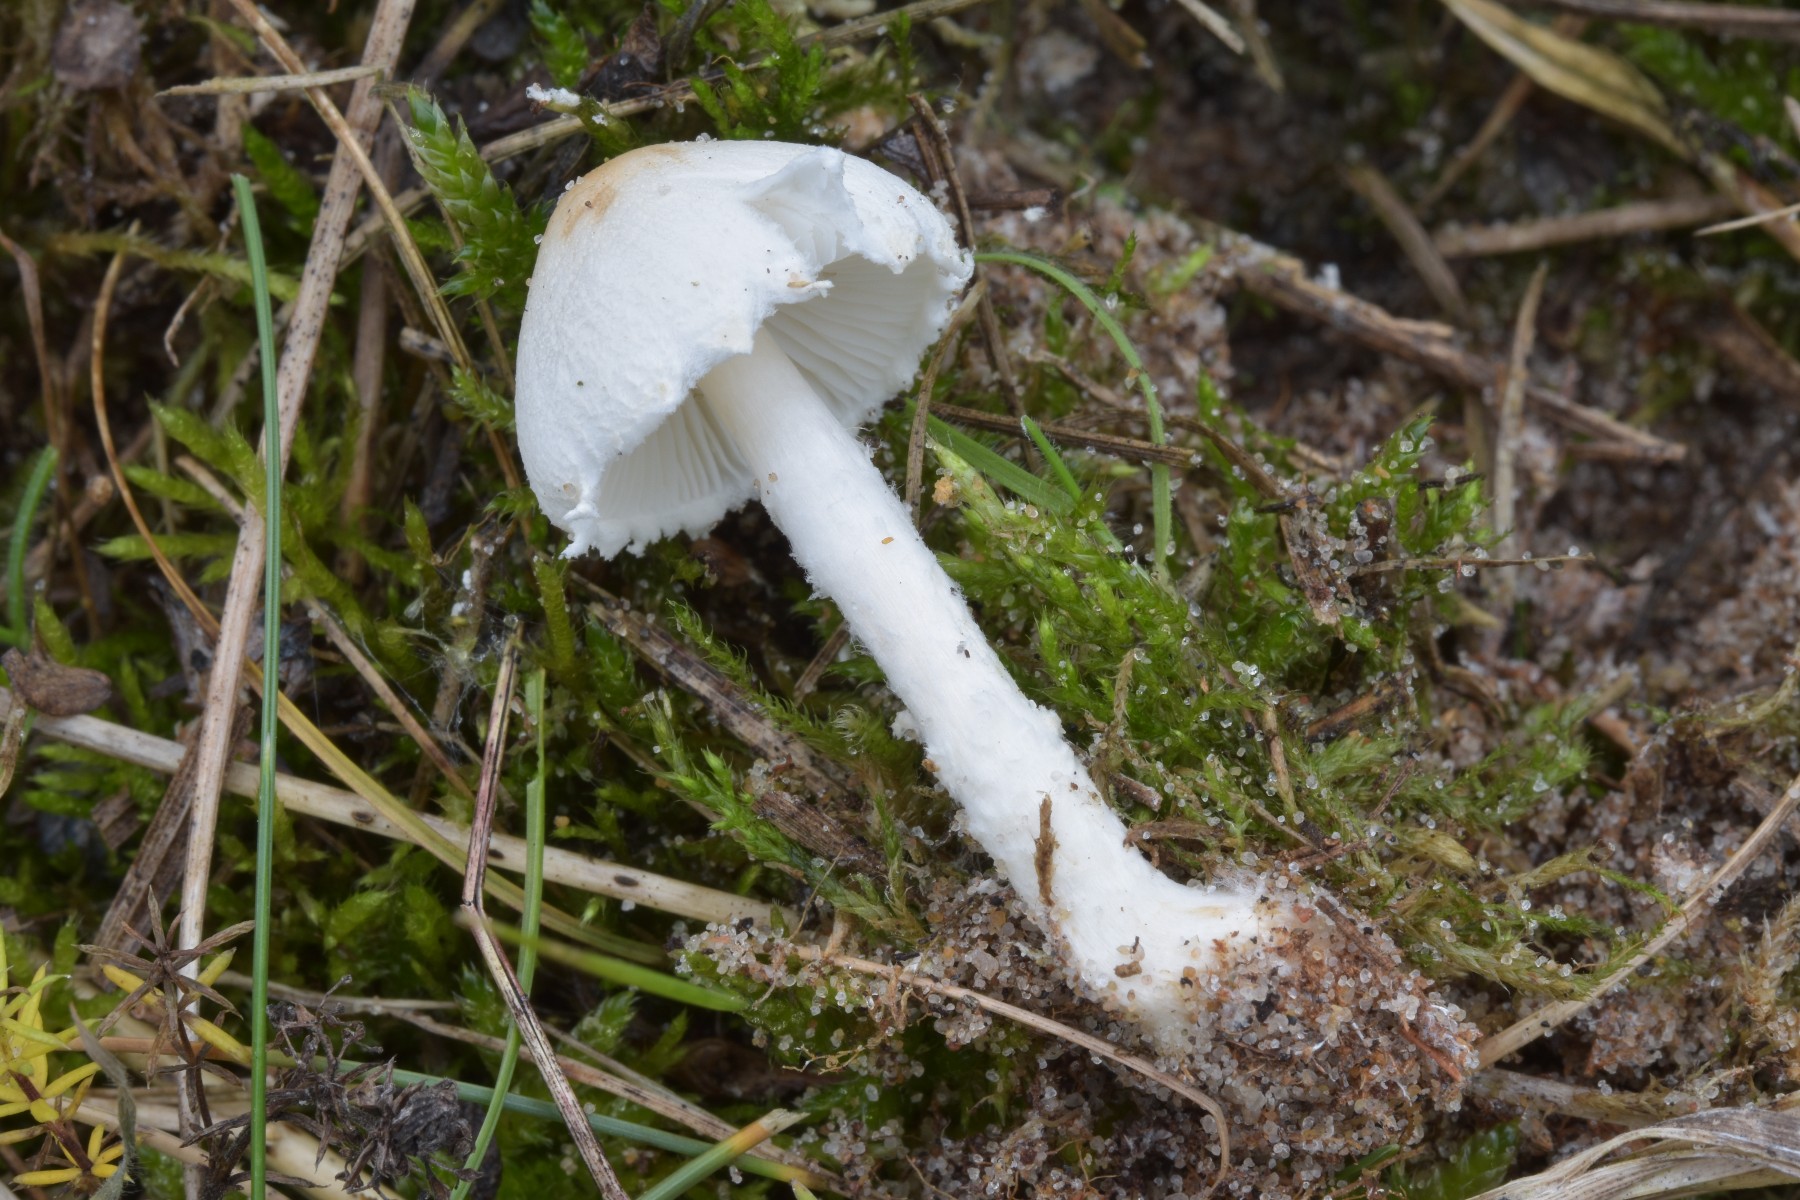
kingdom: Fungi
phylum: Basidiomycota
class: Agaricomycetes
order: Agaricales
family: Agaricaceae
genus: Lepiota
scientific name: Lepiota erminea
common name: hvid parasolhat
